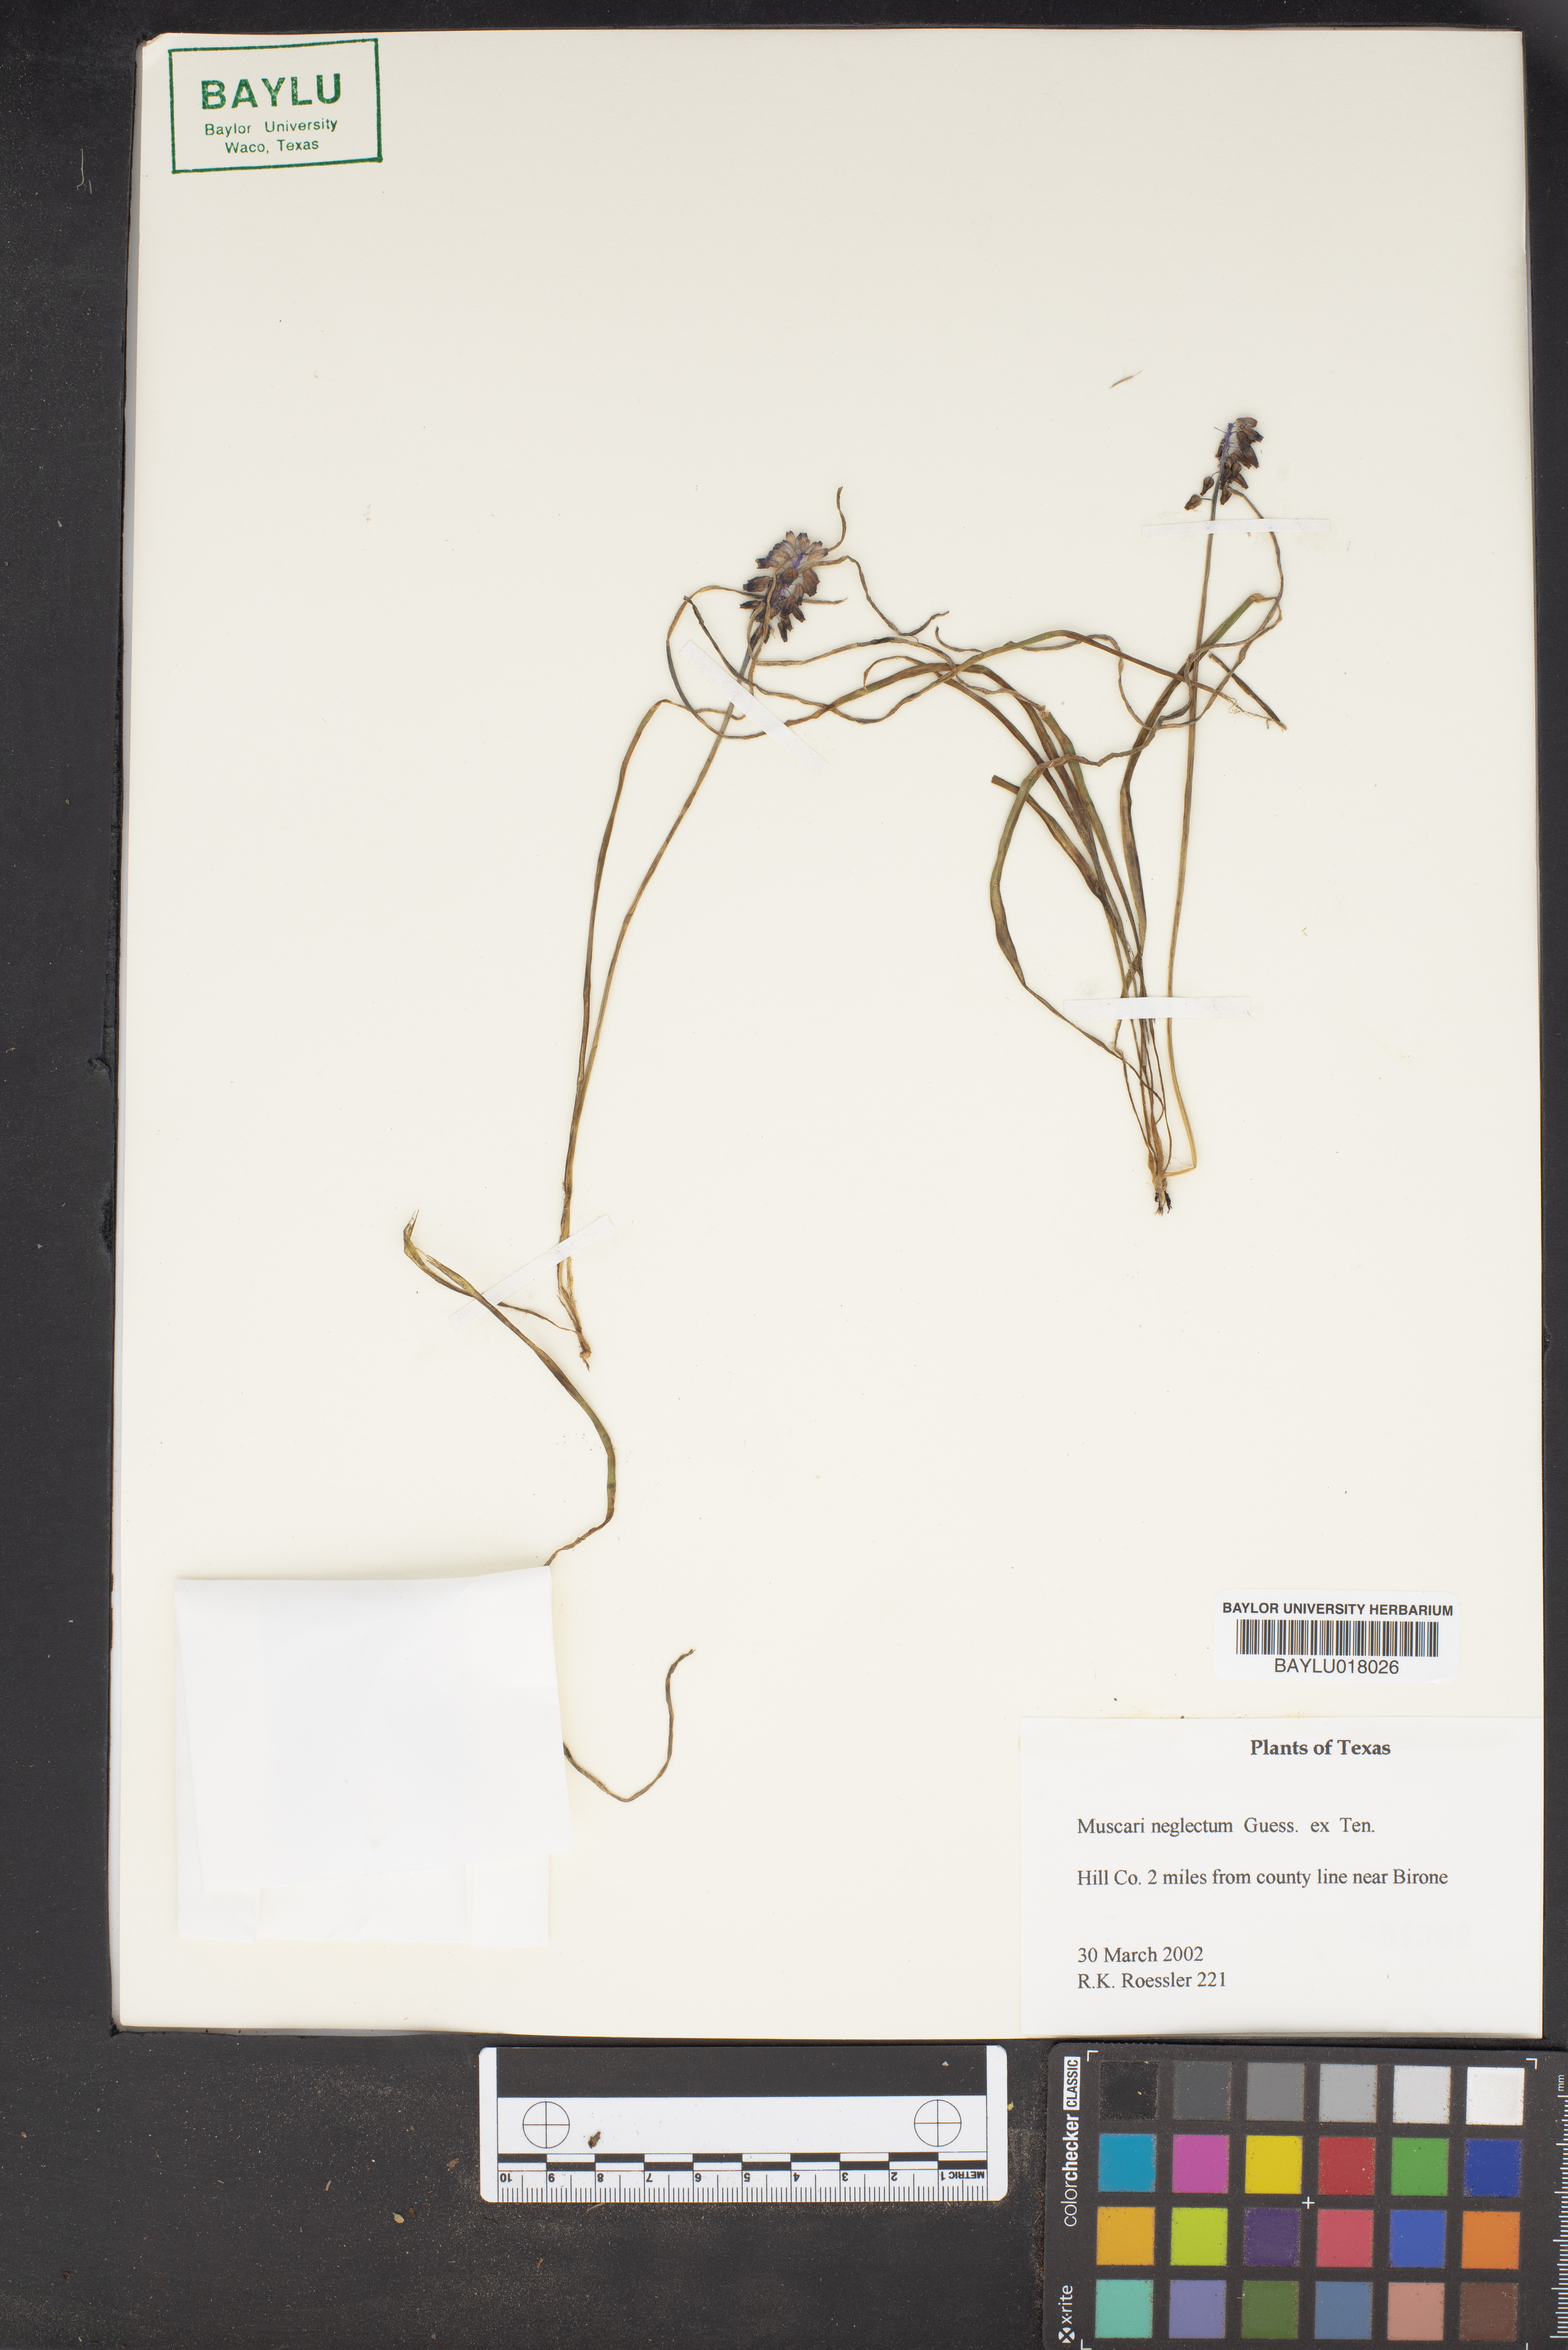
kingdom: Plantae
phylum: Tracheophyta
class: Liliopsida
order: Asparagales
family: Asparagaceae
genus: Muscari
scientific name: Muscari neglectum
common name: Grape-hyacinth
